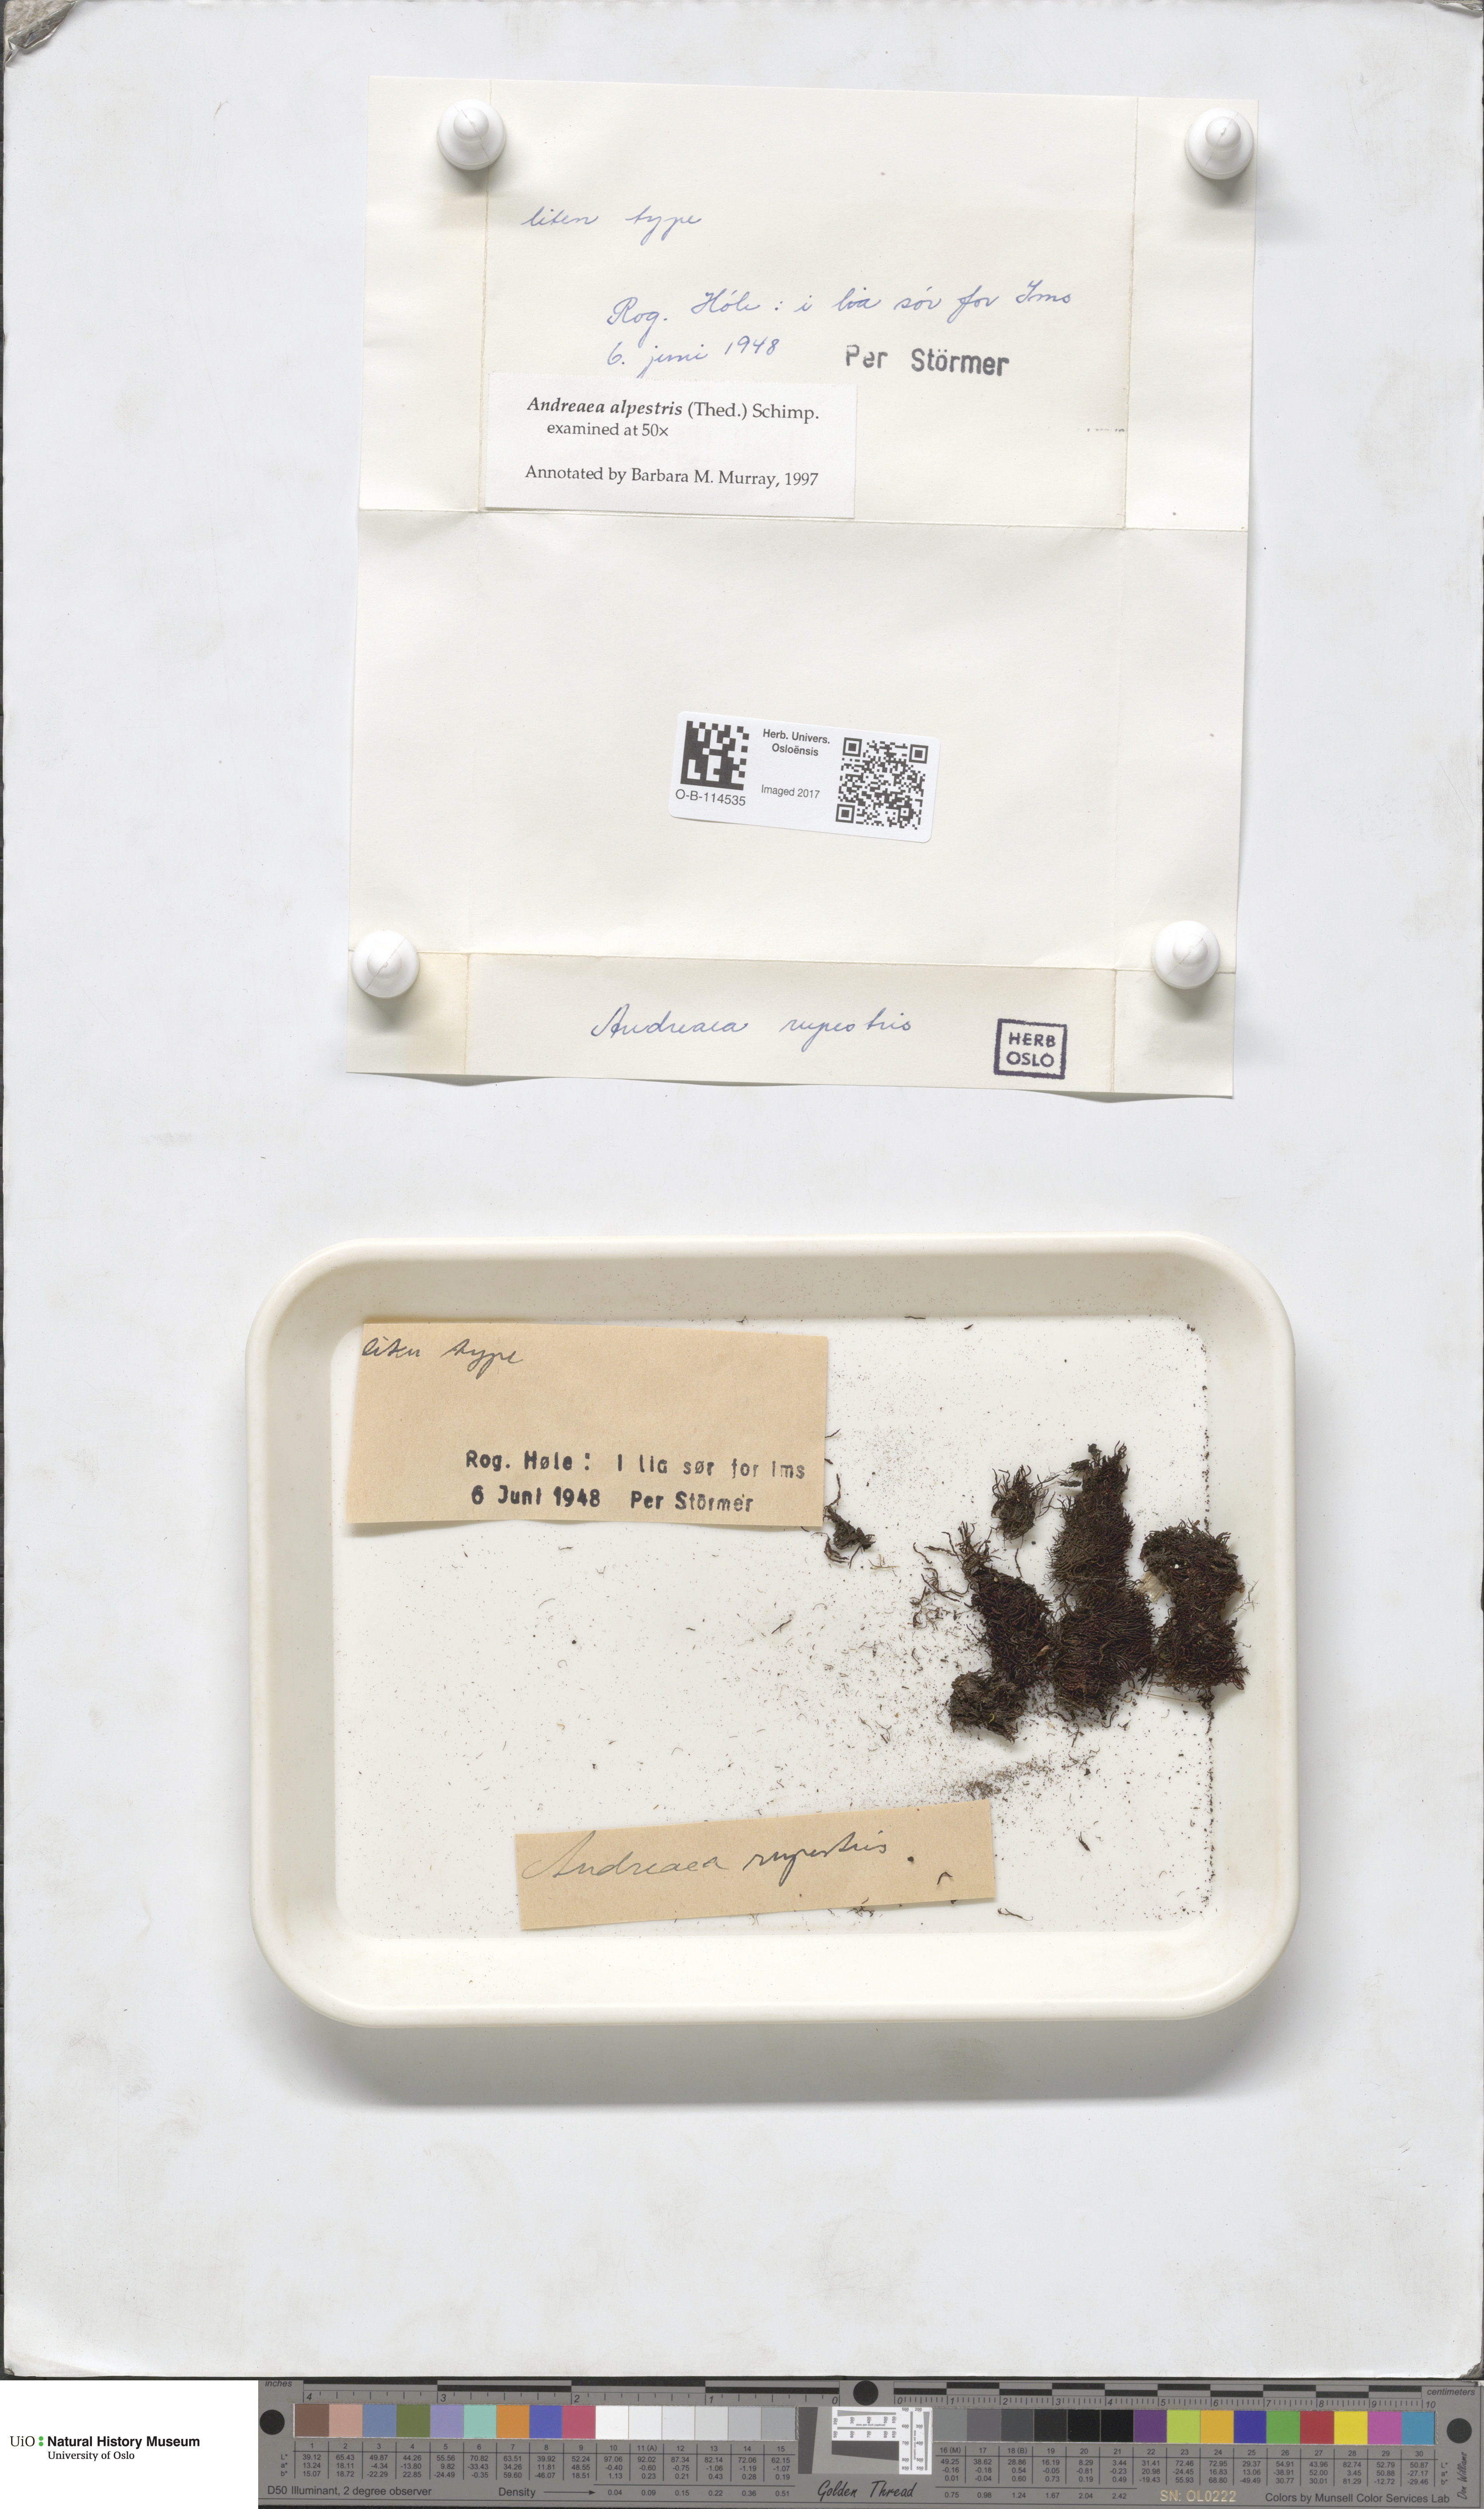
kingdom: Plantae
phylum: Bryophyta
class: Andreaeopsida
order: Andreaeales
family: Andreaeaceae
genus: Andreaea
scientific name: Andreaea alpestris
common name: Slender rock-moss
